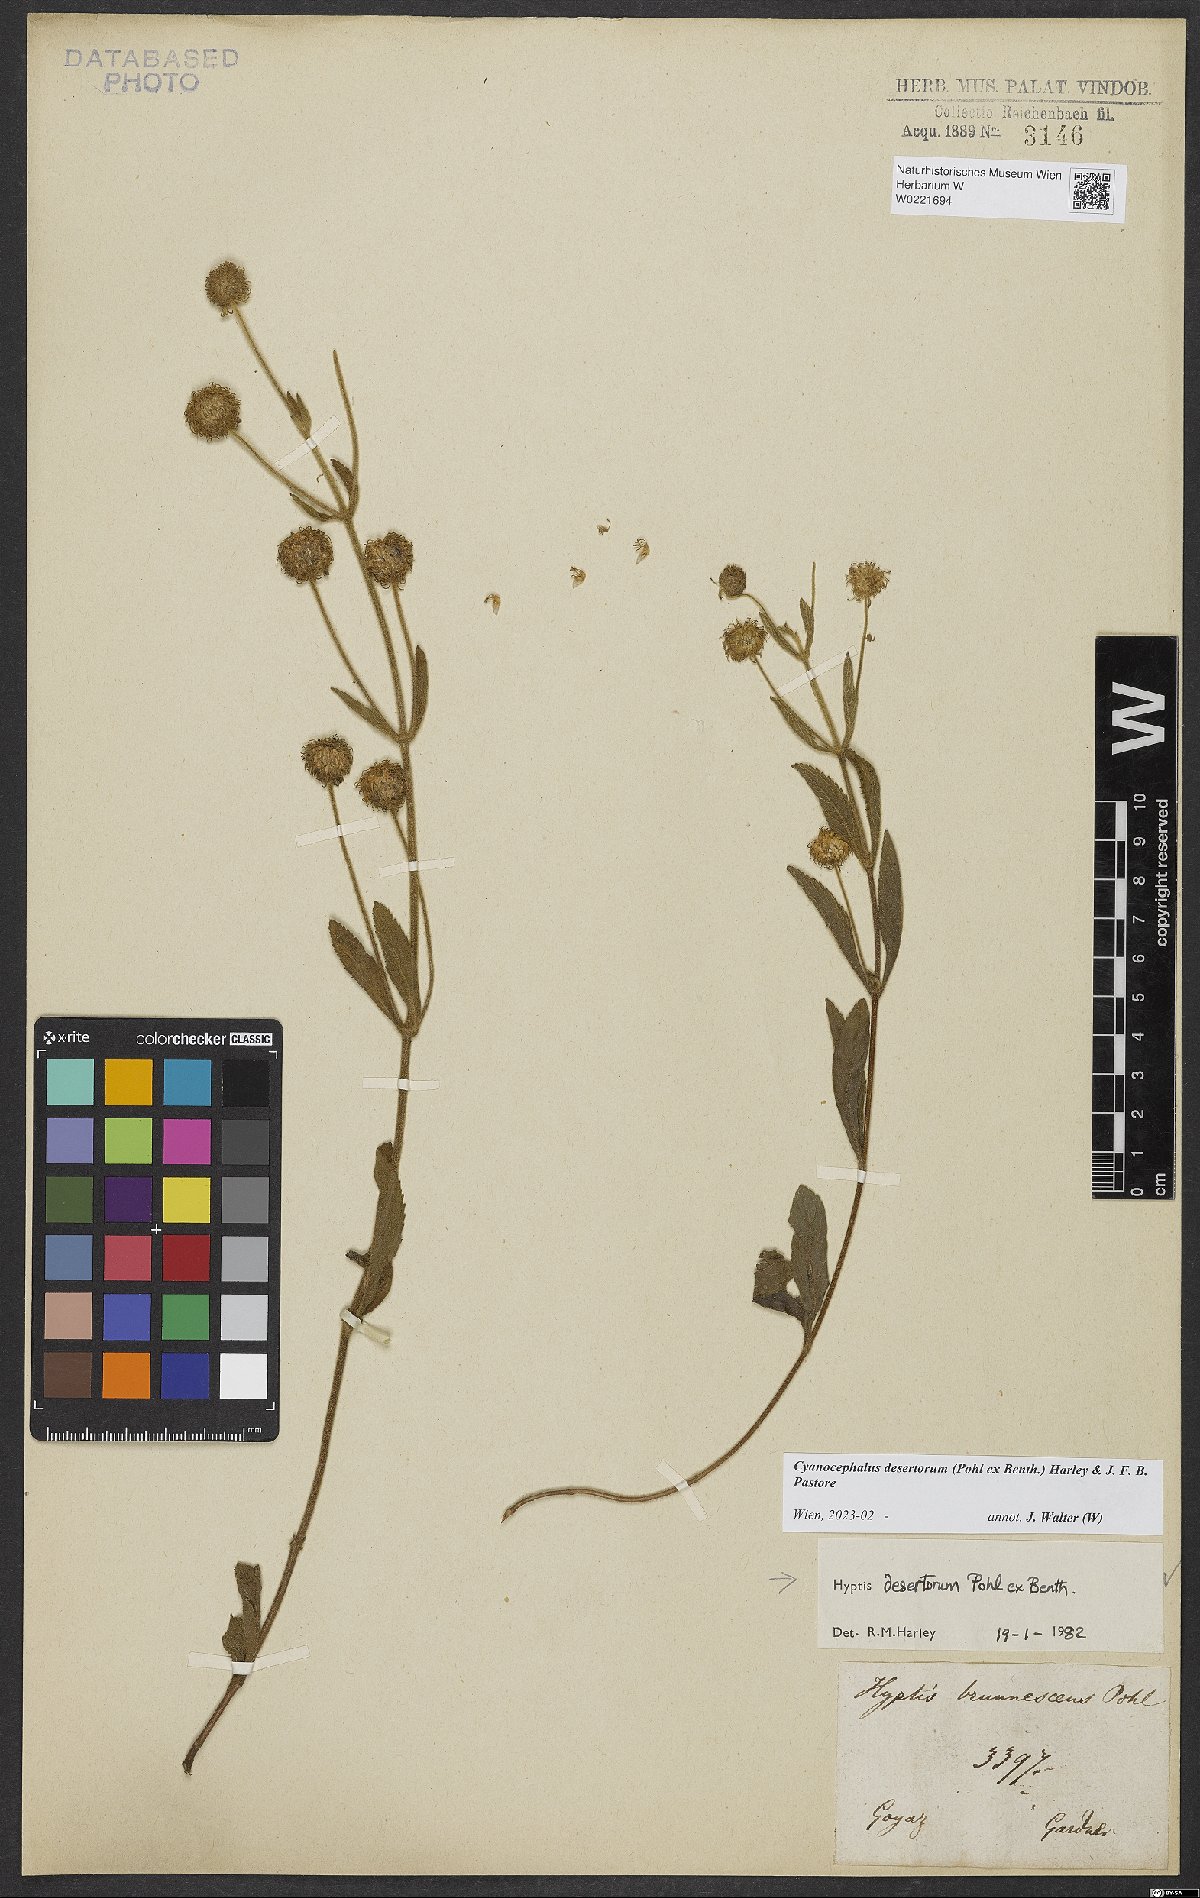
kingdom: Plantae
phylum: Tracheophyta
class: Magnoliopsida
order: Lamiales
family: Lamiaceae
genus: Cyanocephalus
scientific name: Cyanocephalus desertorum
